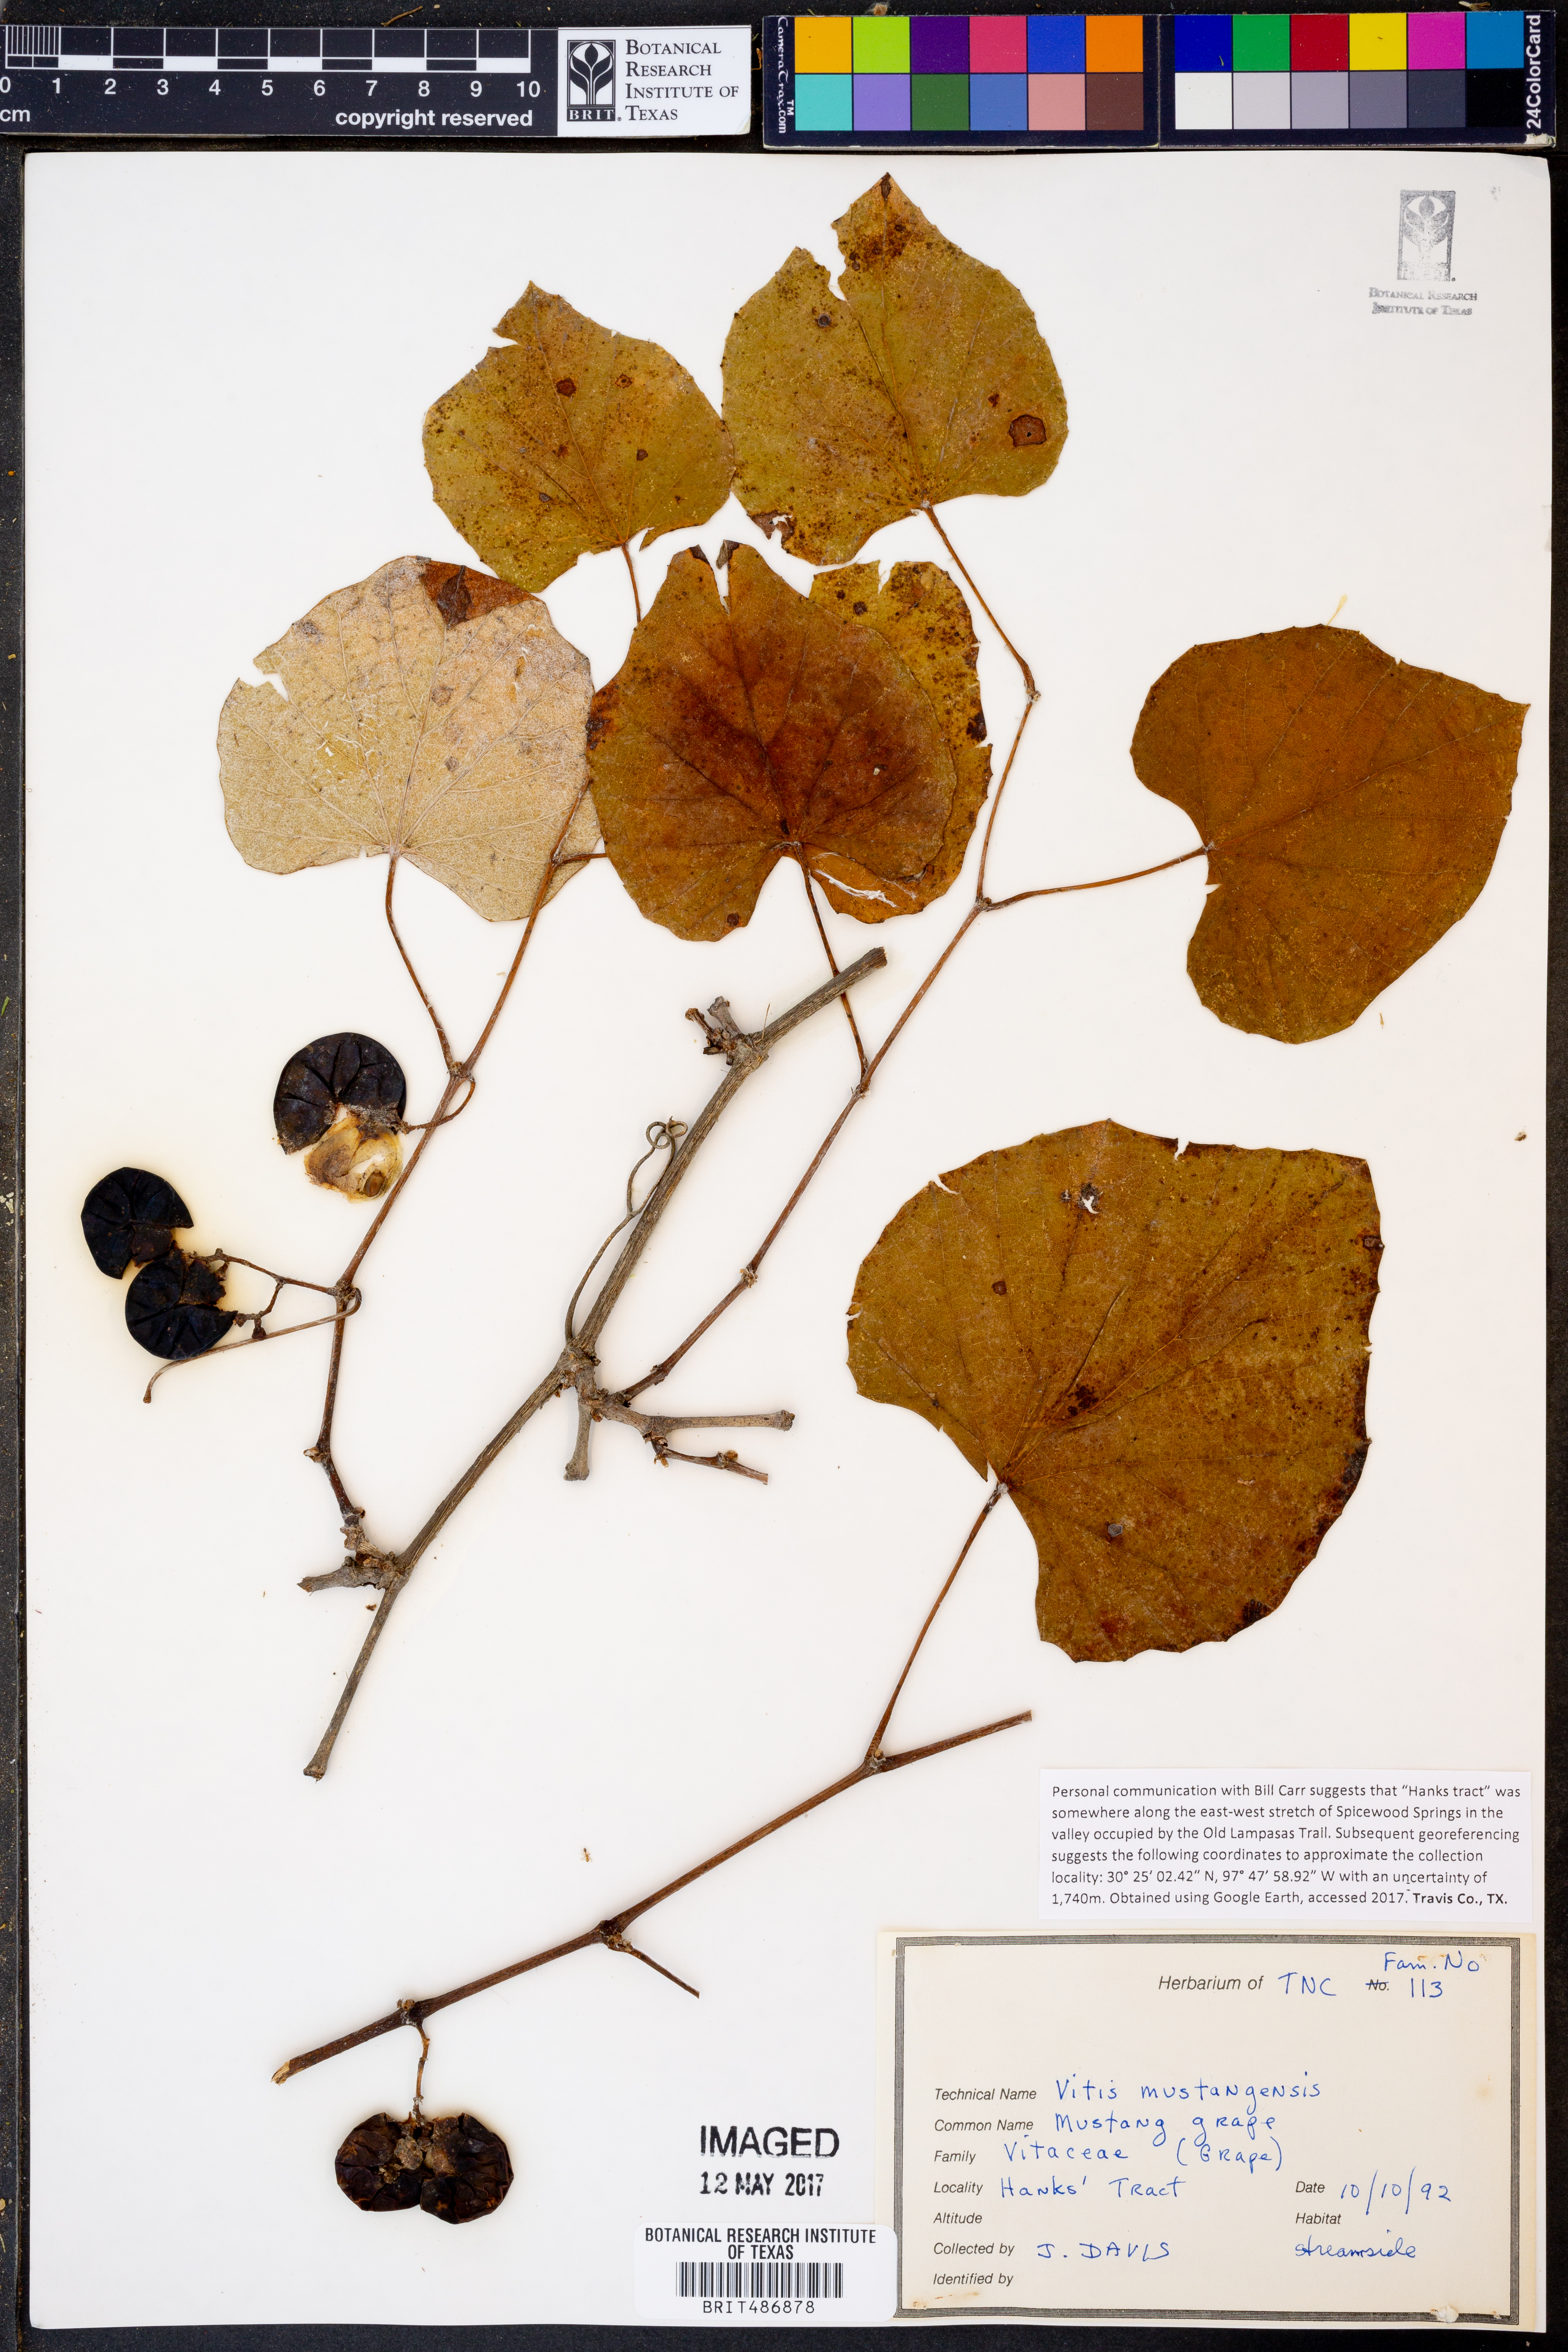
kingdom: Plantae
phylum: Tracheophyta
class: Magnoliopsida
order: Vitales
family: Vitaceae
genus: Vitis
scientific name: Vitis mustangensis
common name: Mustang grape
